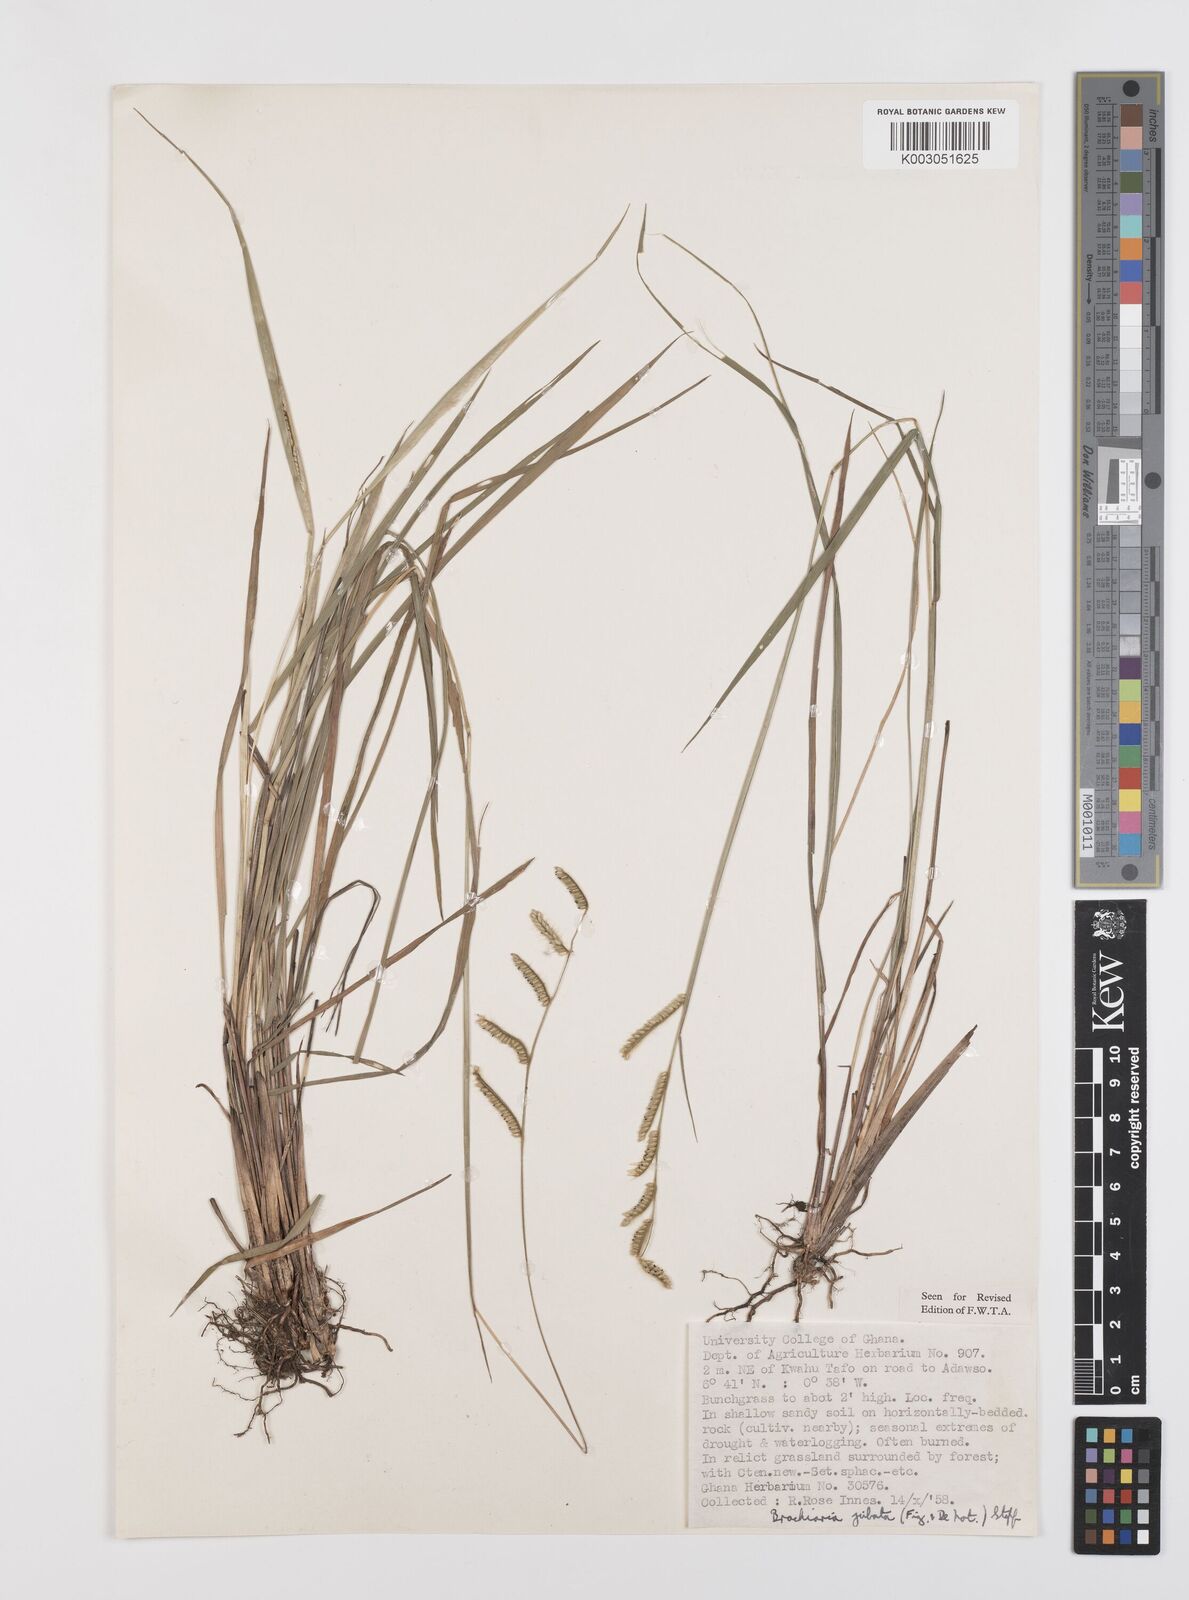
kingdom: Plantae
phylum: Tracheophyta
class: Liliopsida
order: Poales
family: Poaceae
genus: Urochloa
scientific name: Urochloa jubata
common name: Buffalograss
